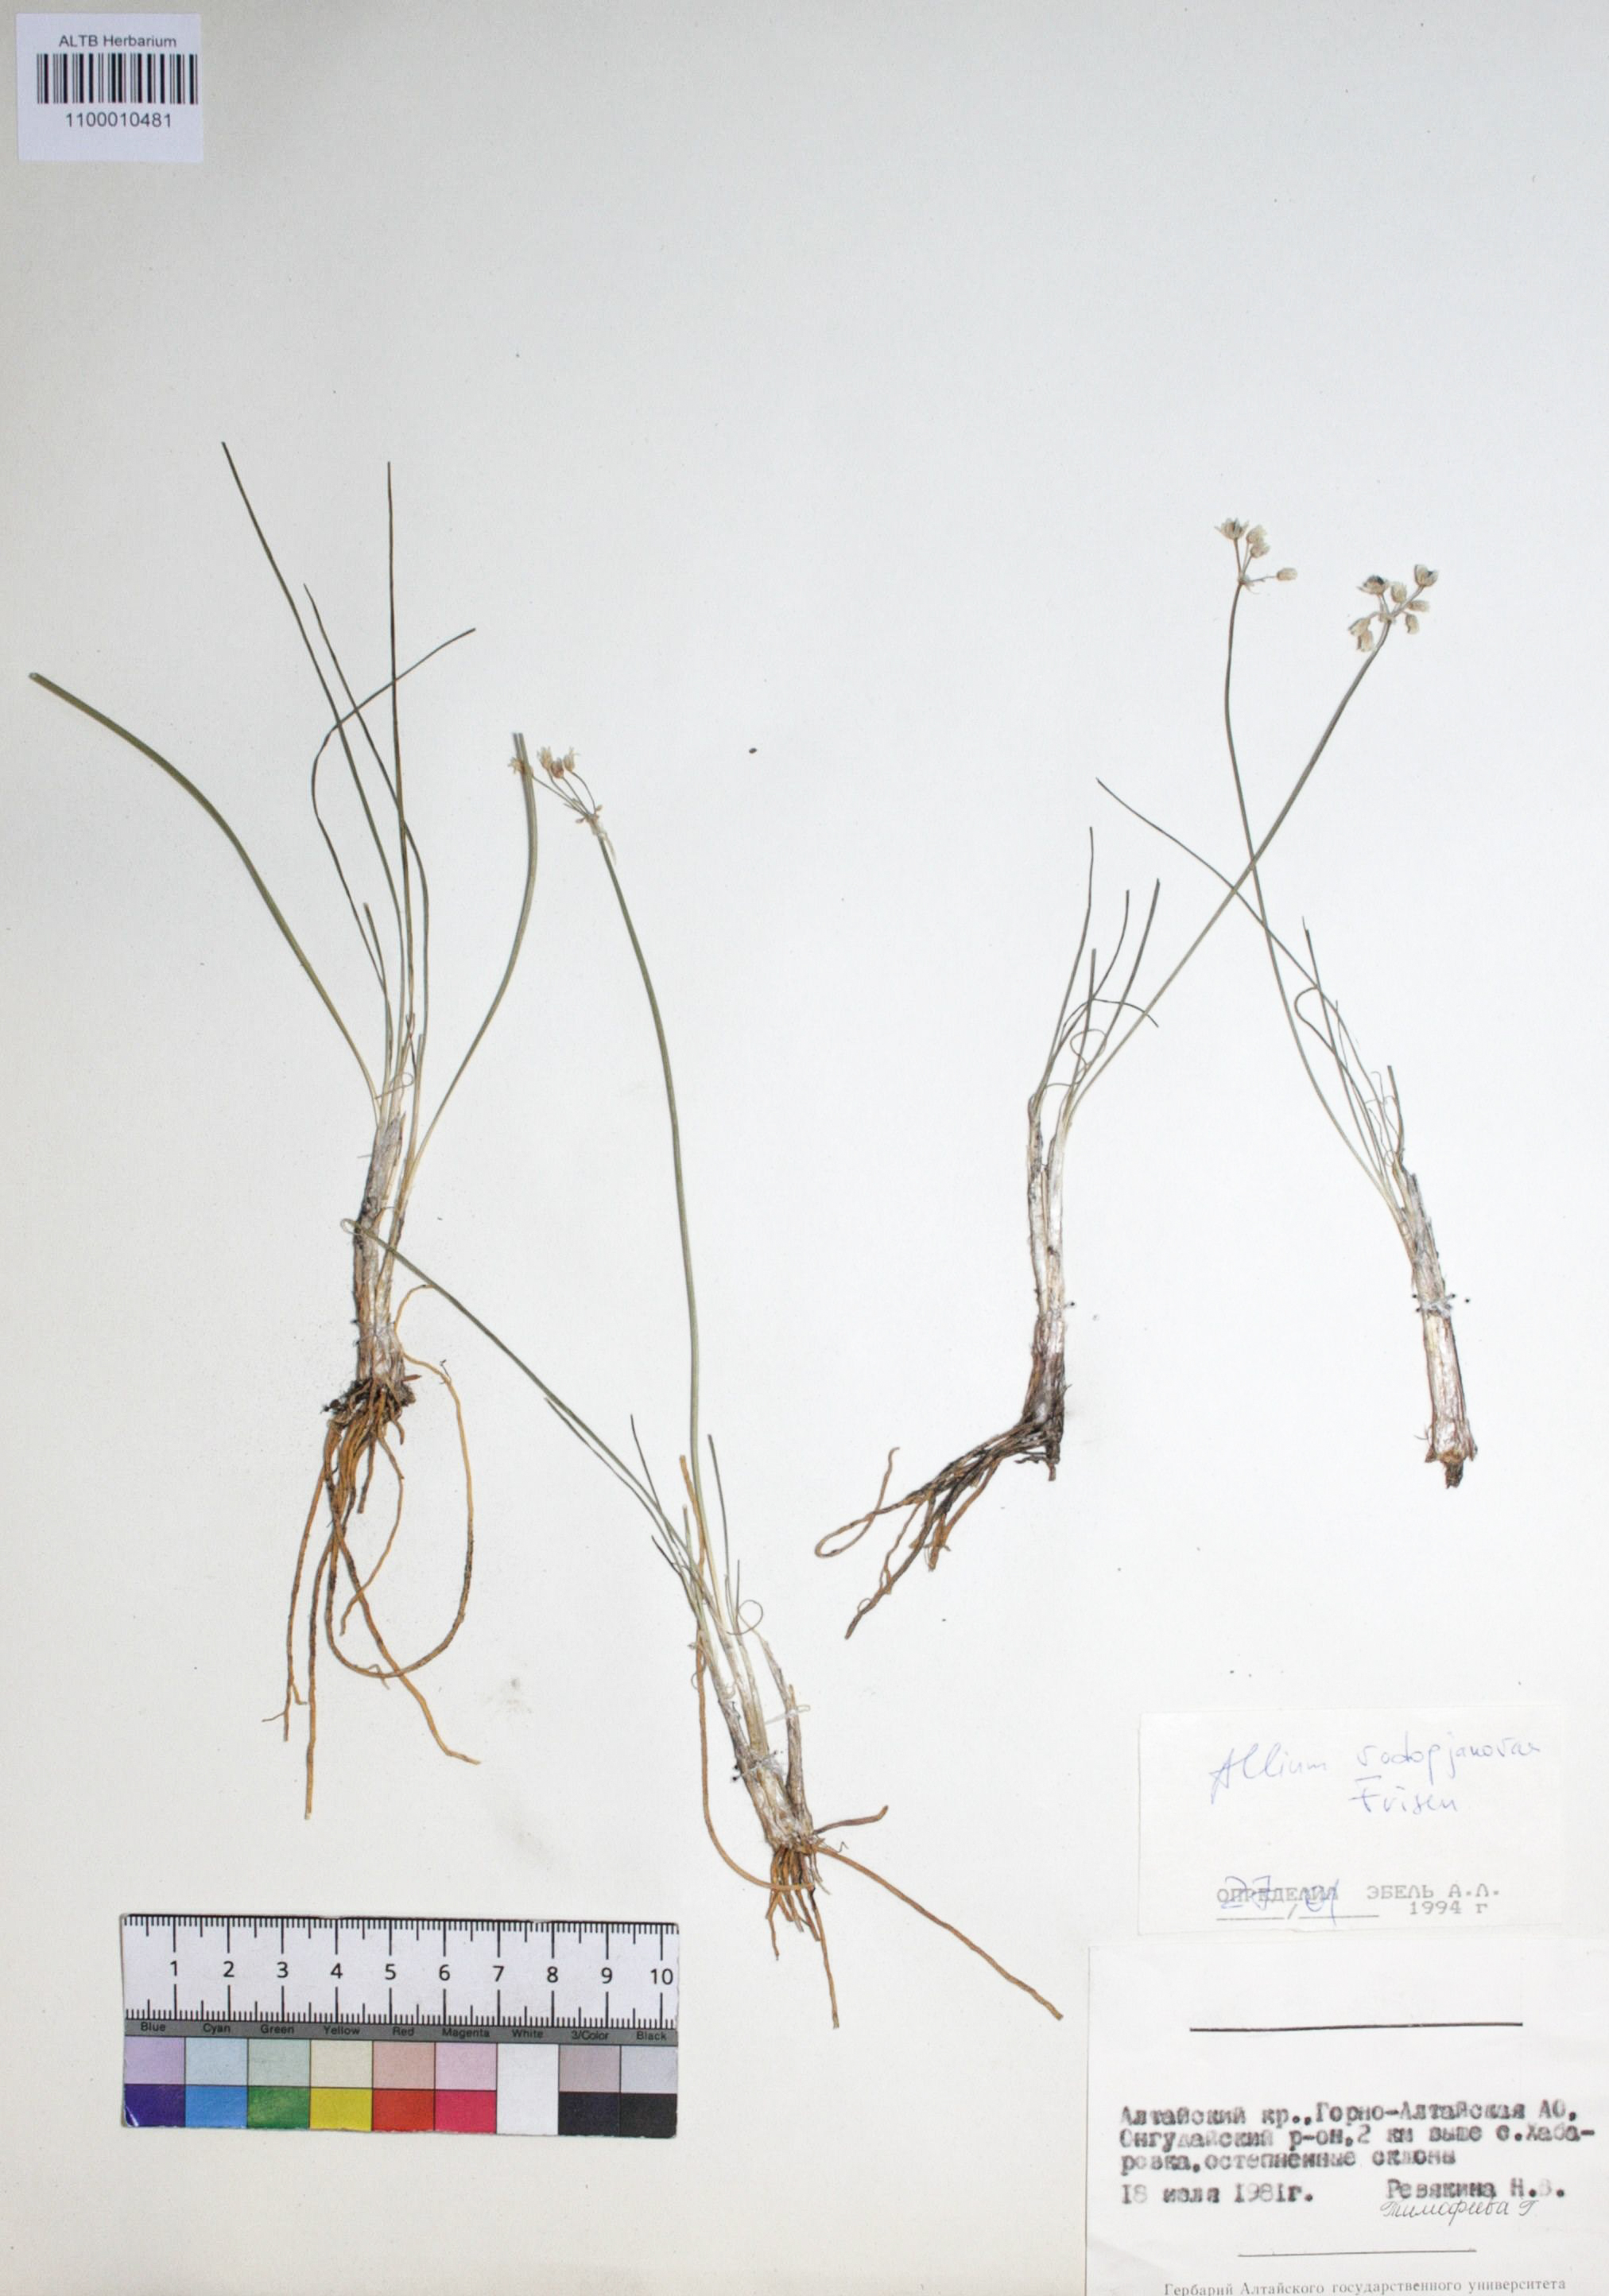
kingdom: Plantae
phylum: Tracheophyta
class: Liliopsida
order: Asparagales
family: Amaryllidaceae
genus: Allium
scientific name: Allium vodopjanovae
